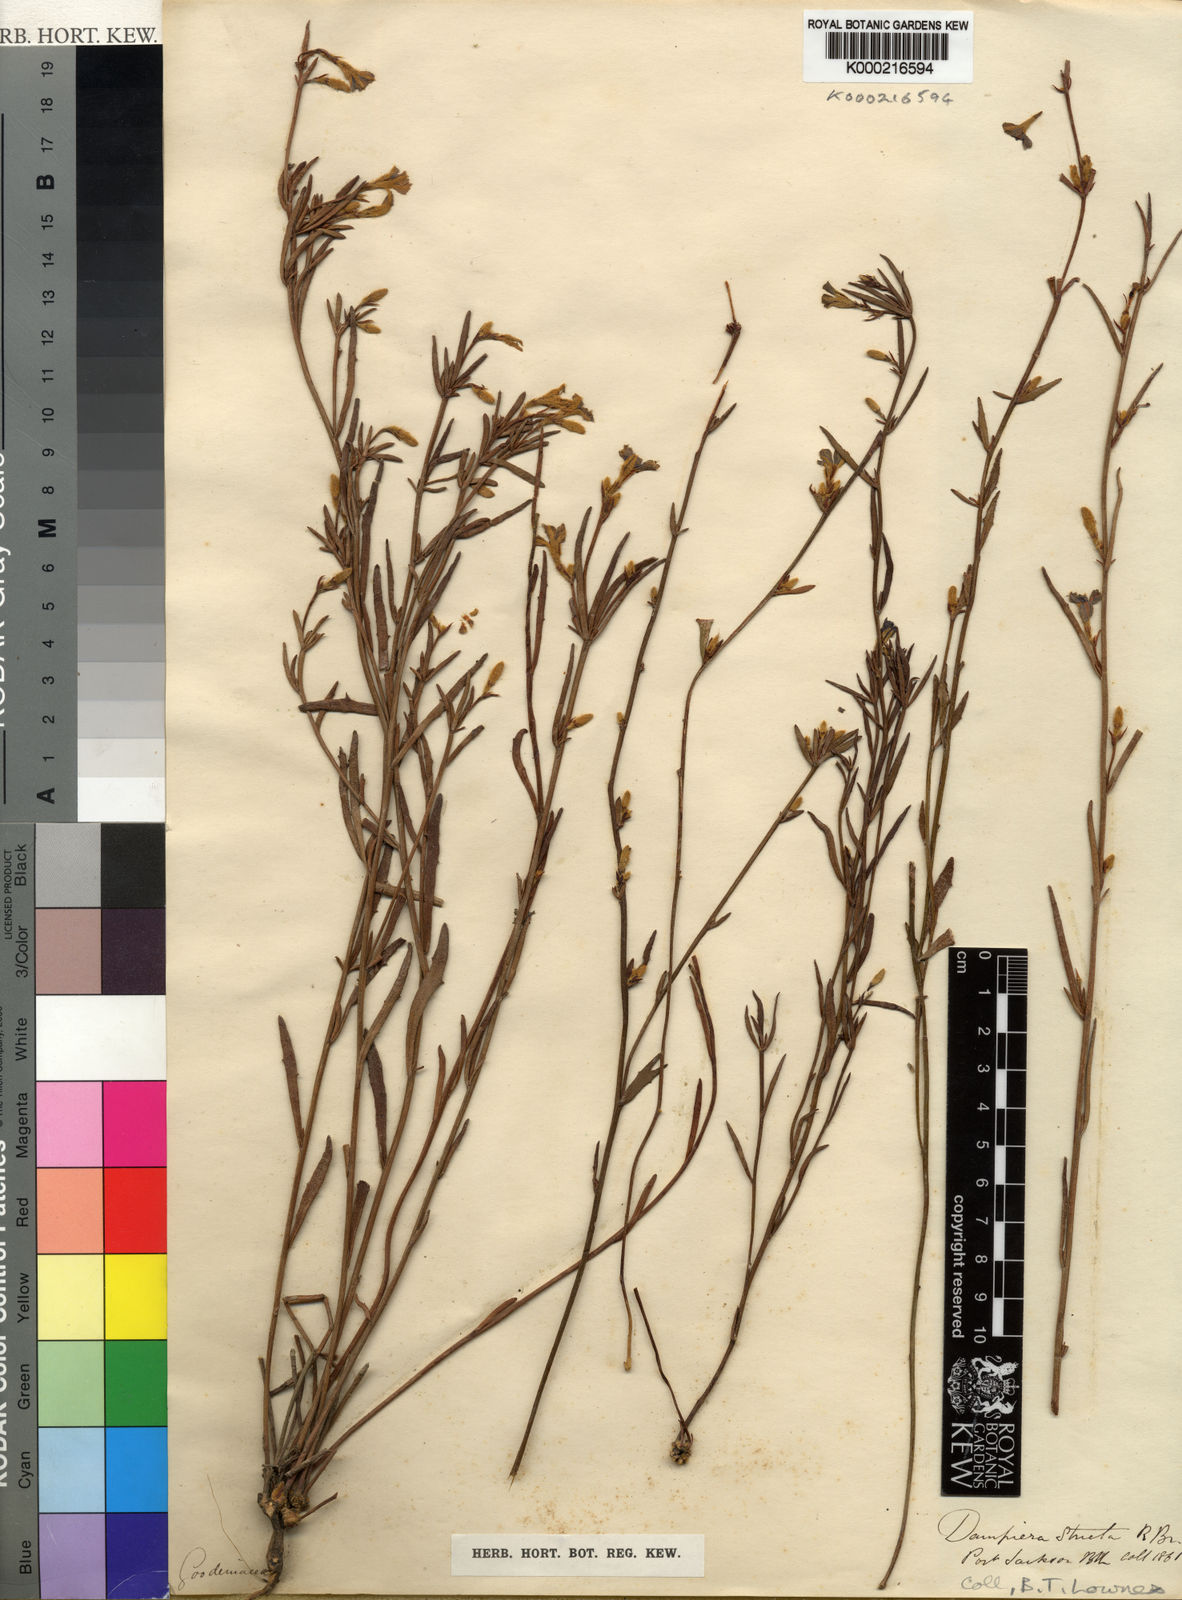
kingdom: Plantae
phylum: Tracheophyta
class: Magnoliopsida
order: Asterales
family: Goodeniaceae
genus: Dampiera
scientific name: Dampiera stricta
